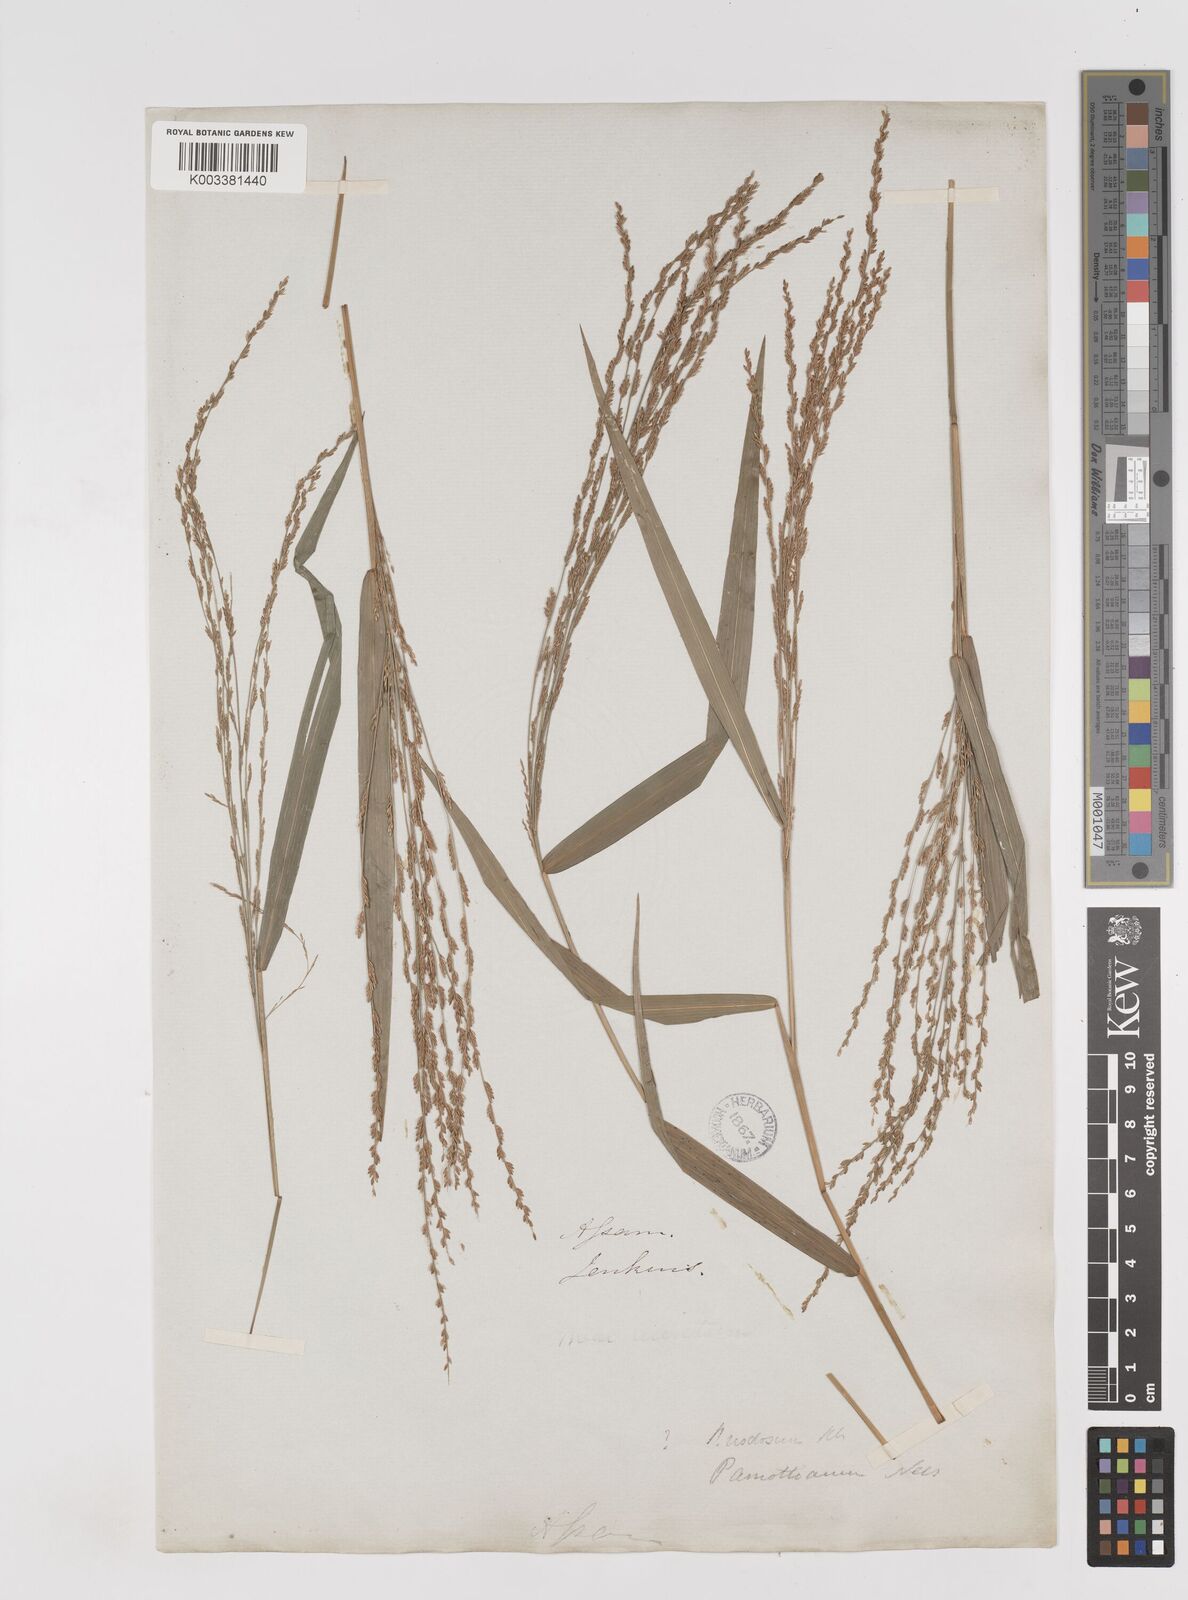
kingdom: Plantae
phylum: Tracheophyta
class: Liliopsida
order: Poales
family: Poaceae
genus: Ottochloa
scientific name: Ottochloa nodosa
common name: Slender-panic grass
